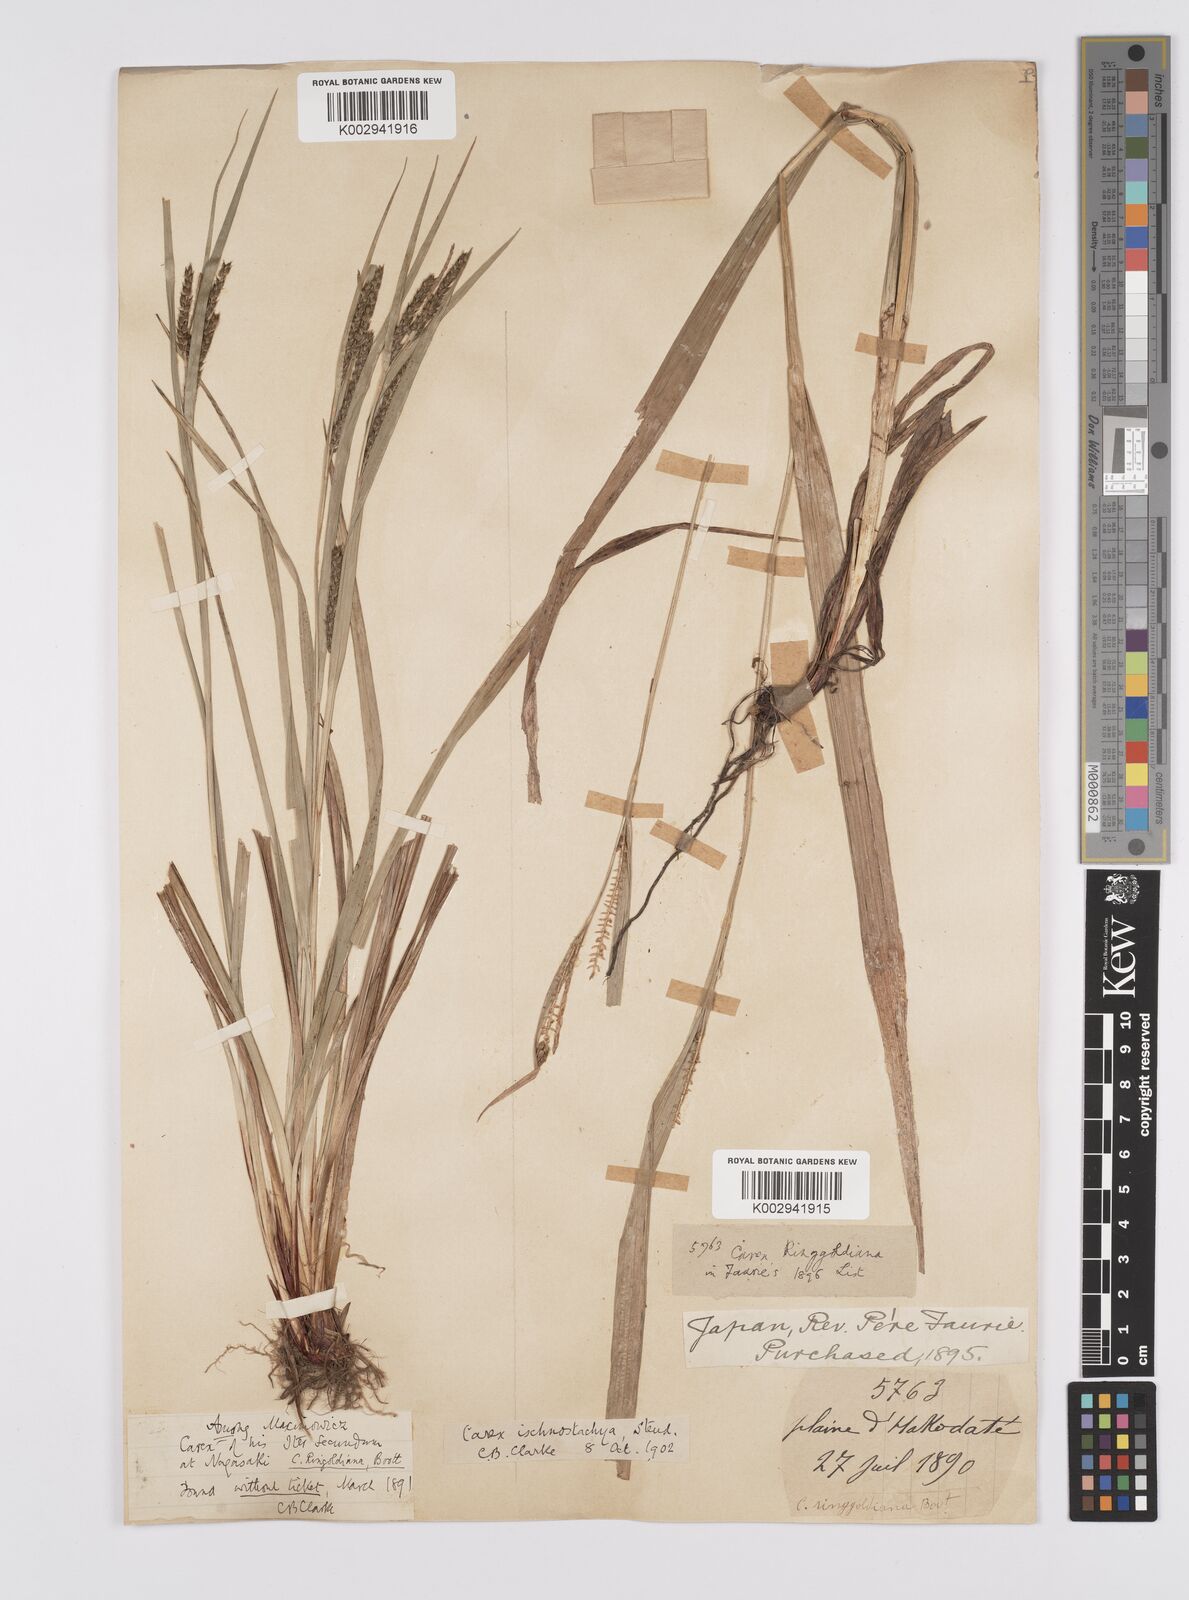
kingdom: Plantae
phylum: Tracheophyta
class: Liliopsida
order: Poales
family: Cyperaceae
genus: Carex
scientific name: Carex ischnostachya
